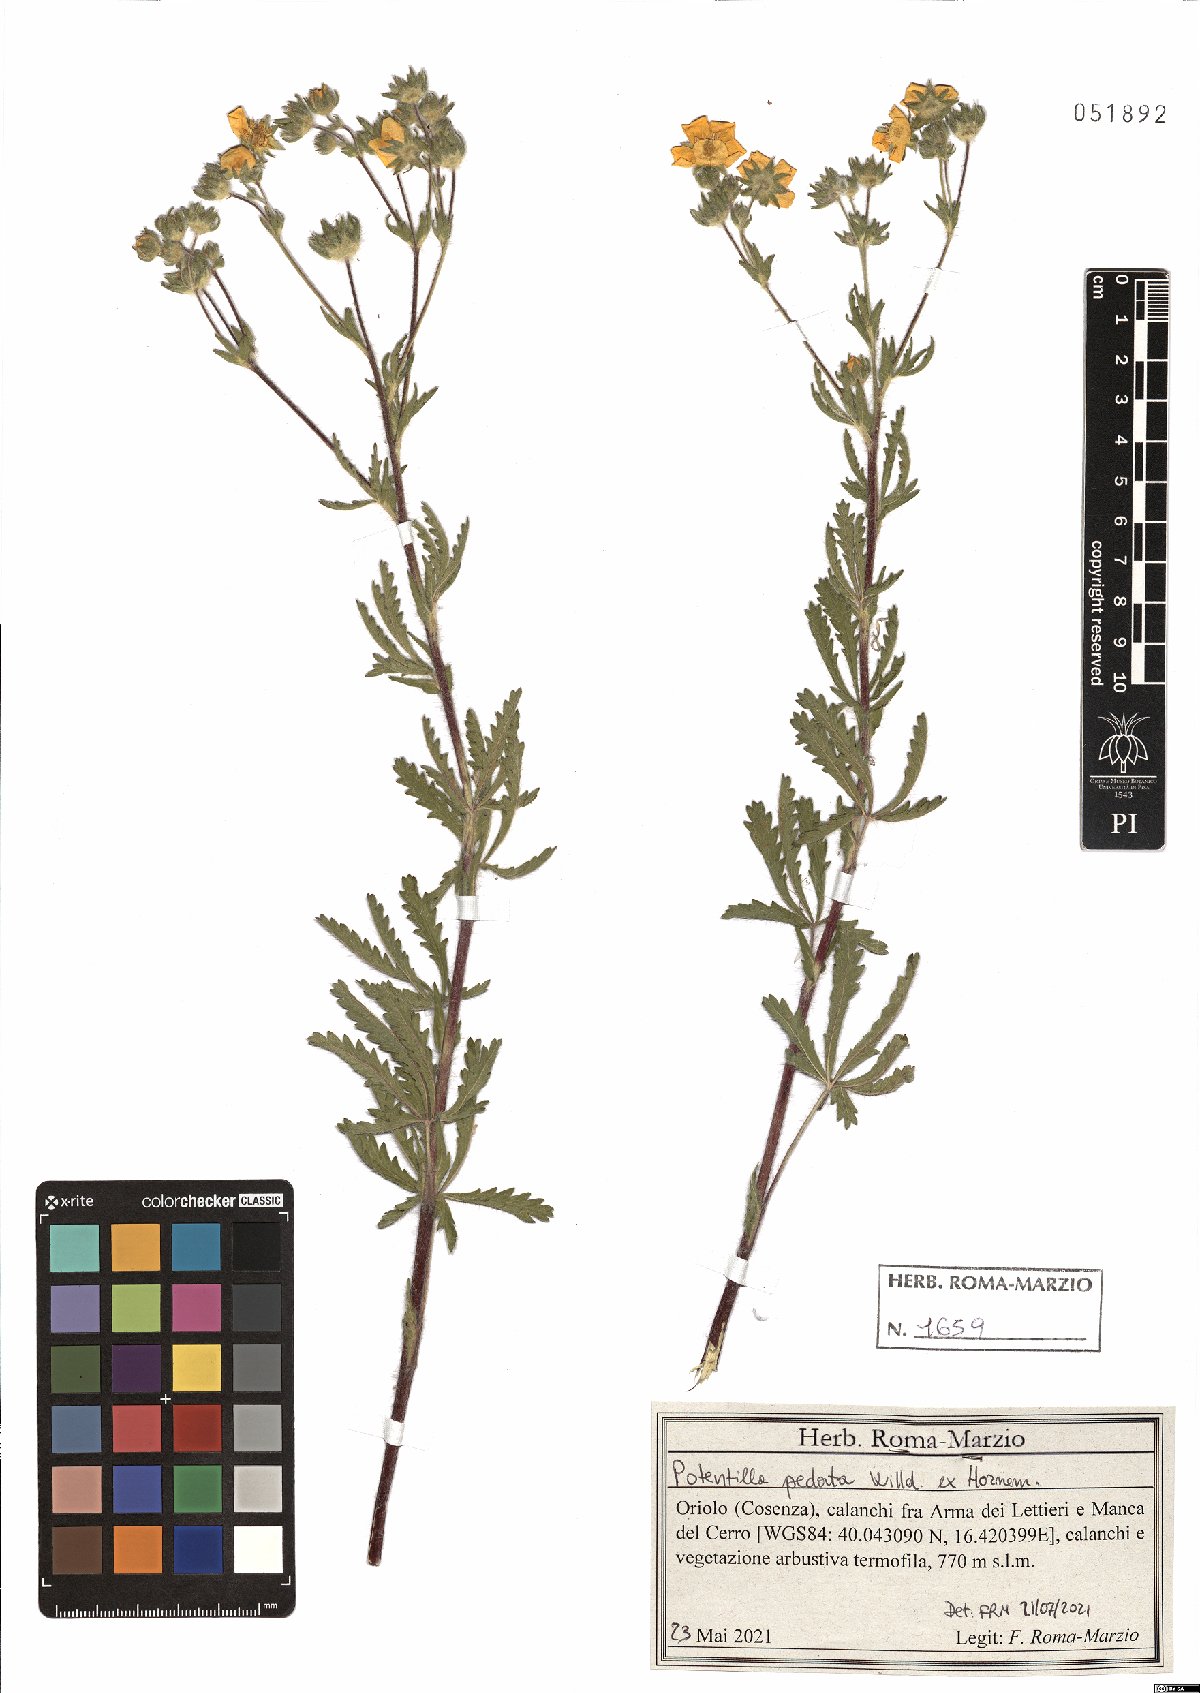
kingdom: Plantae
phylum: Tracheophyta
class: Magnoliopsida
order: Rosales
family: Rosaceae
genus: Potentilla
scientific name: Potentilla pedata
